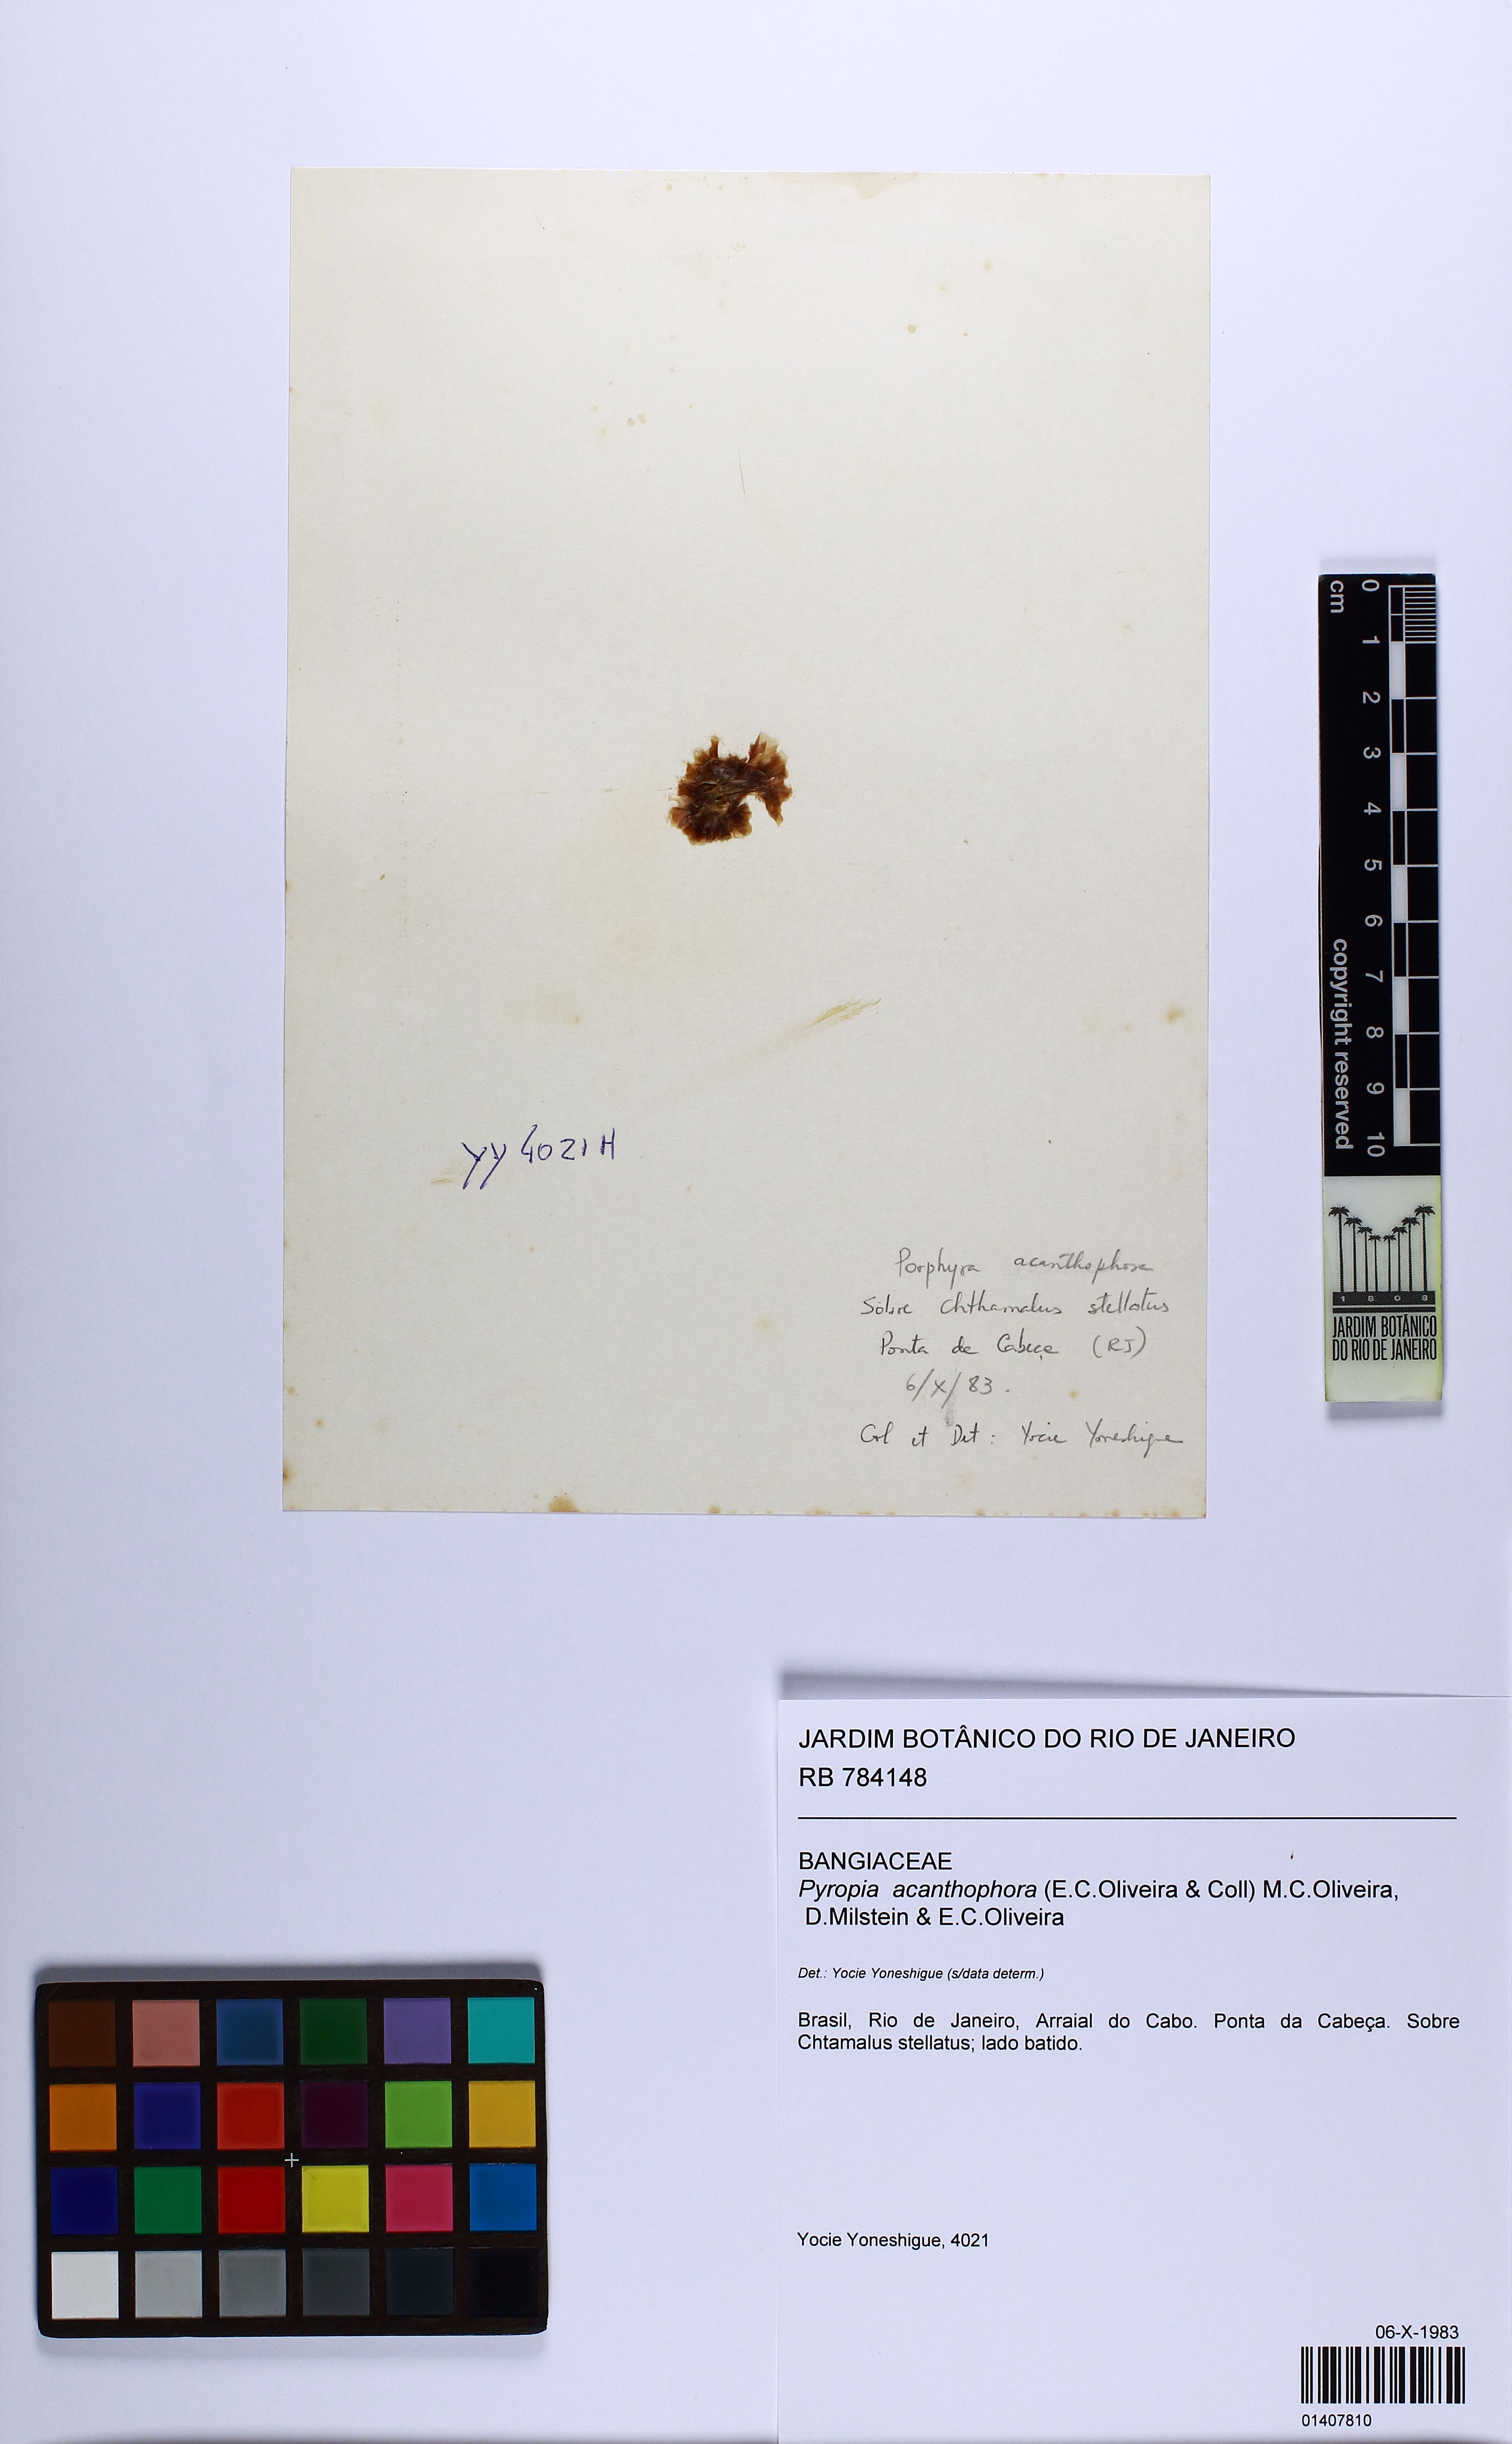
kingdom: Plantae
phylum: Rhodophyta
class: Bangiophyceae
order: Bangiales
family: Bangiaceae
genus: Pyropia
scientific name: Pyropia acanthophora
